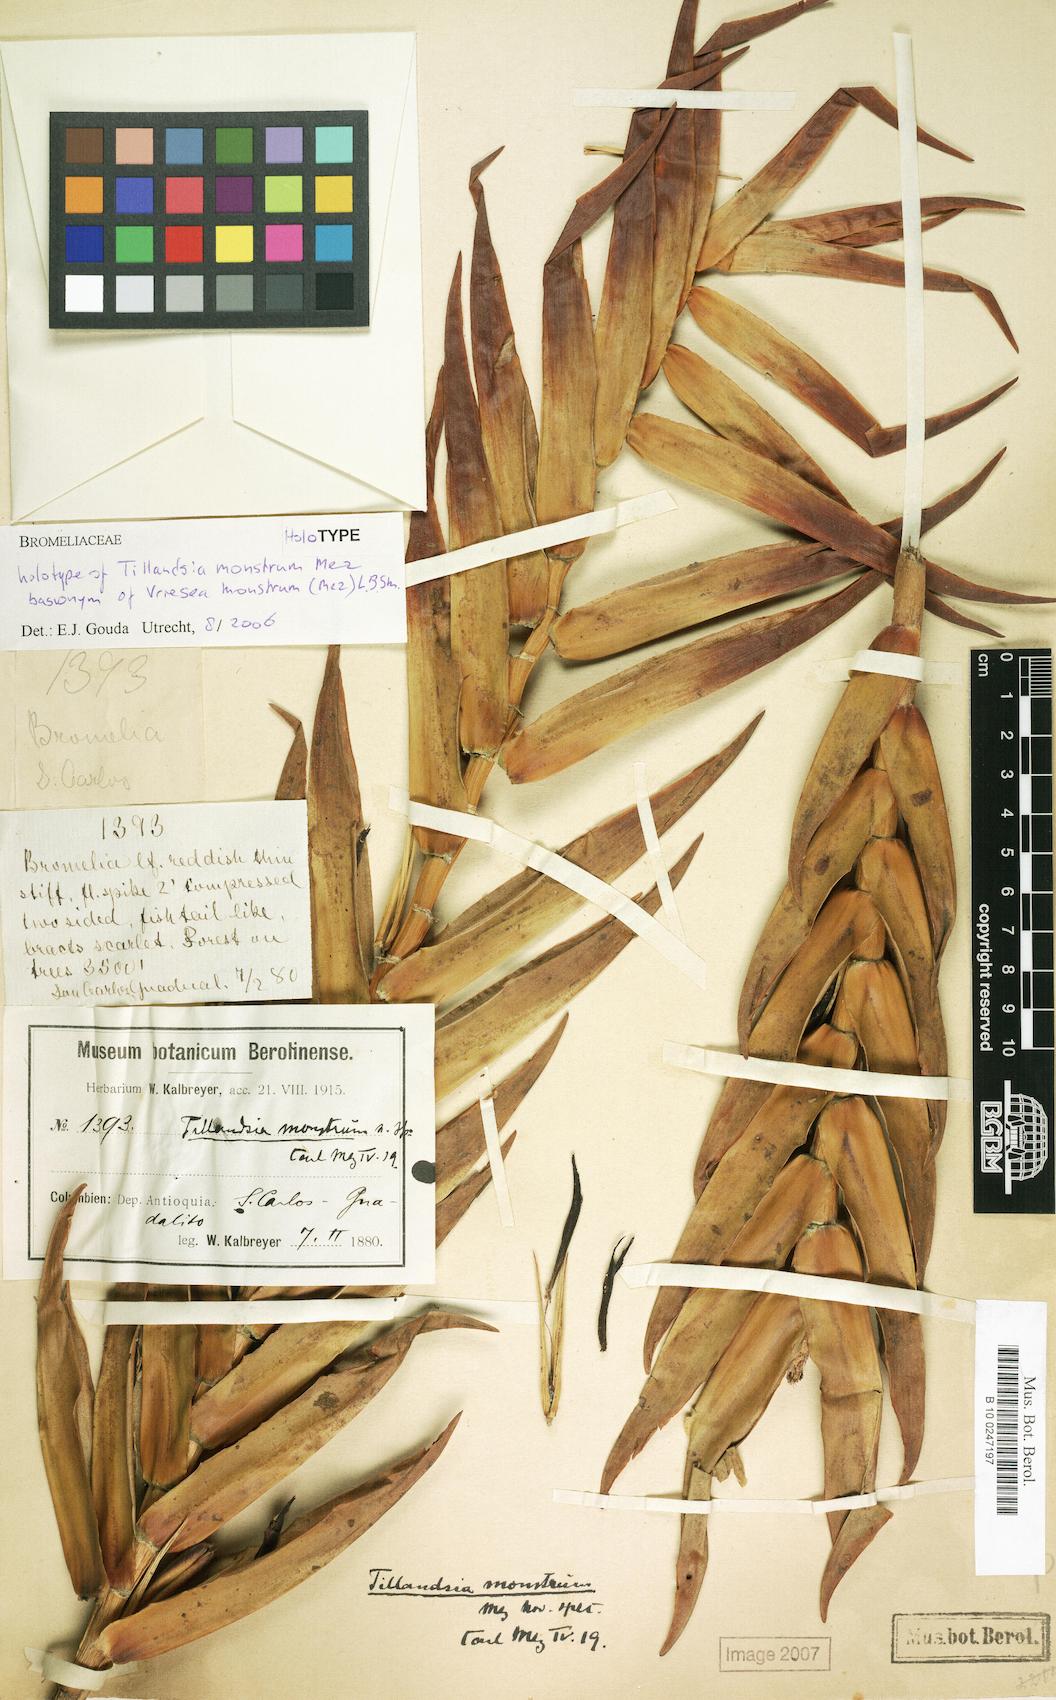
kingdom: Plantae
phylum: Tracheophyta
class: Liliopsida
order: Poales
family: Bromeliaceae
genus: Jagrantia
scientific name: Jagrantia monstrum
